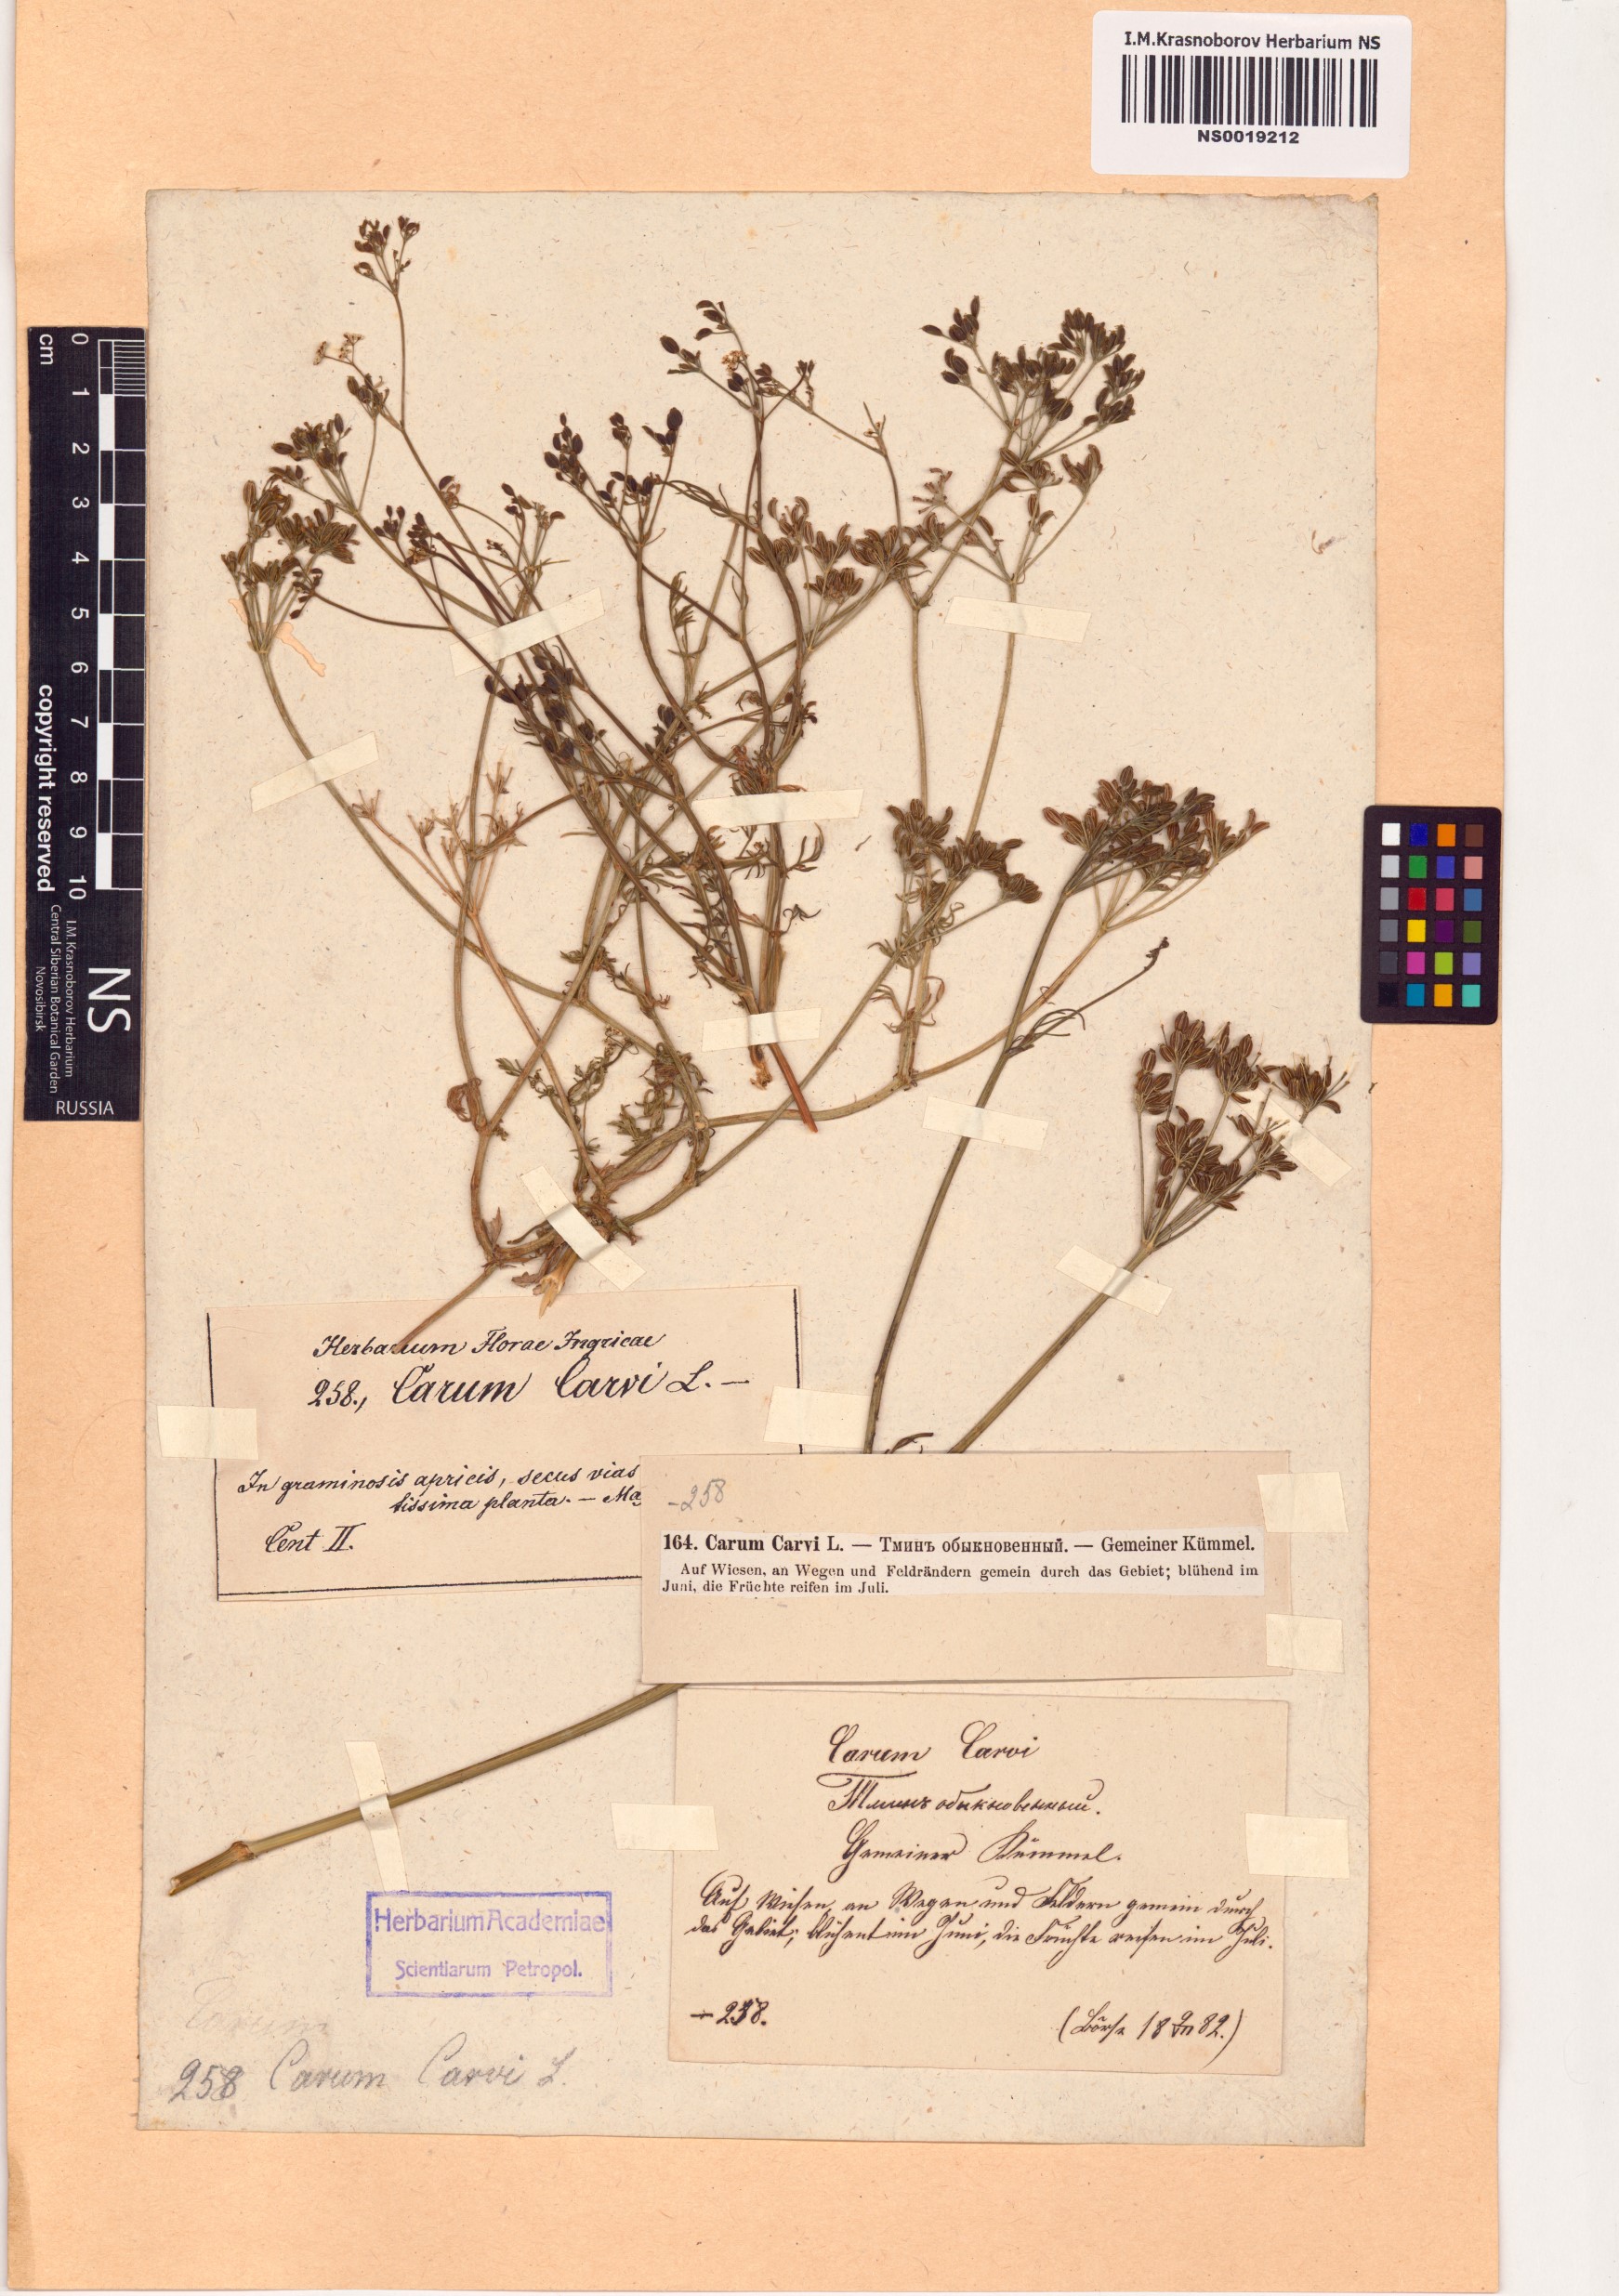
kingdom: Plantae
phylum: Tracheophyta
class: Magnoliopsida
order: Apiales
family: Apiaceae
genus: Carum
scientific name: Carum carvi
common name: Caraway
